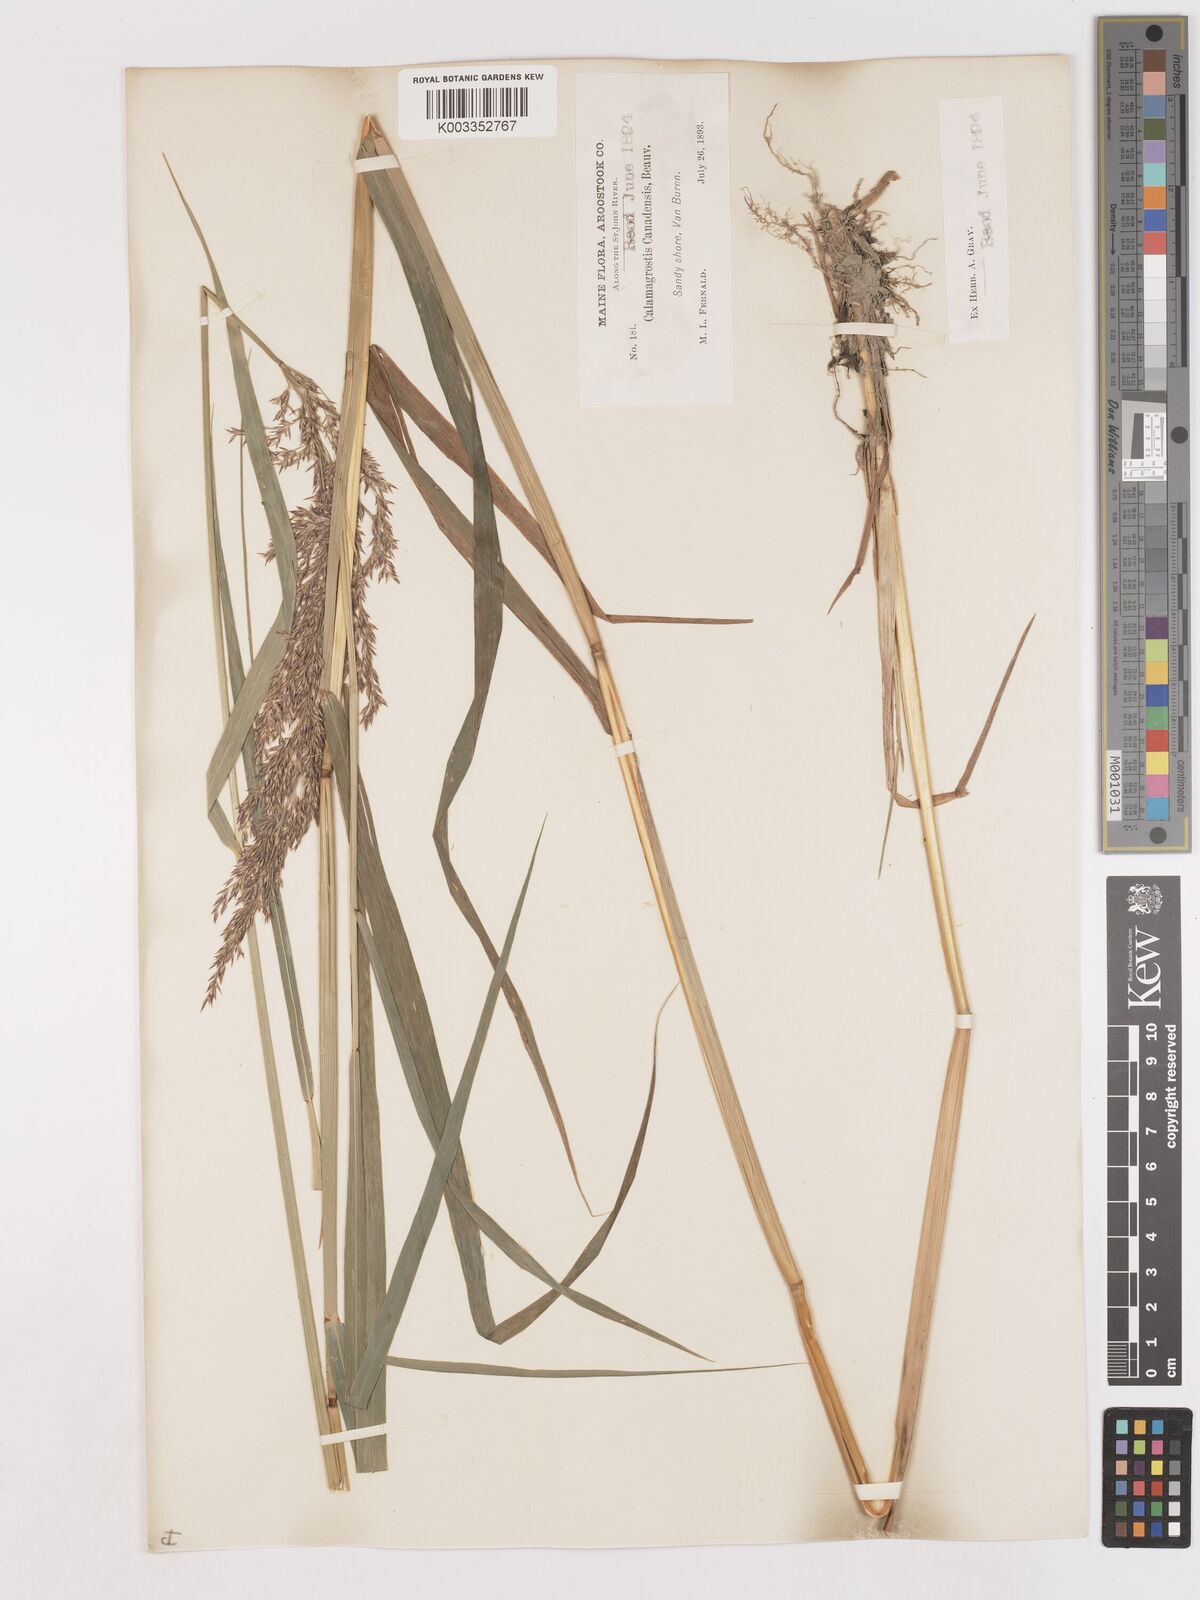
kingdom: Plantae
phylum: Tracheophyta
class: Liliopsida
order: Poales
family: Poaceae
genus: Calamagrostis
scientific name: Calamagrostis canadensis
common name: Canada bluejoint
